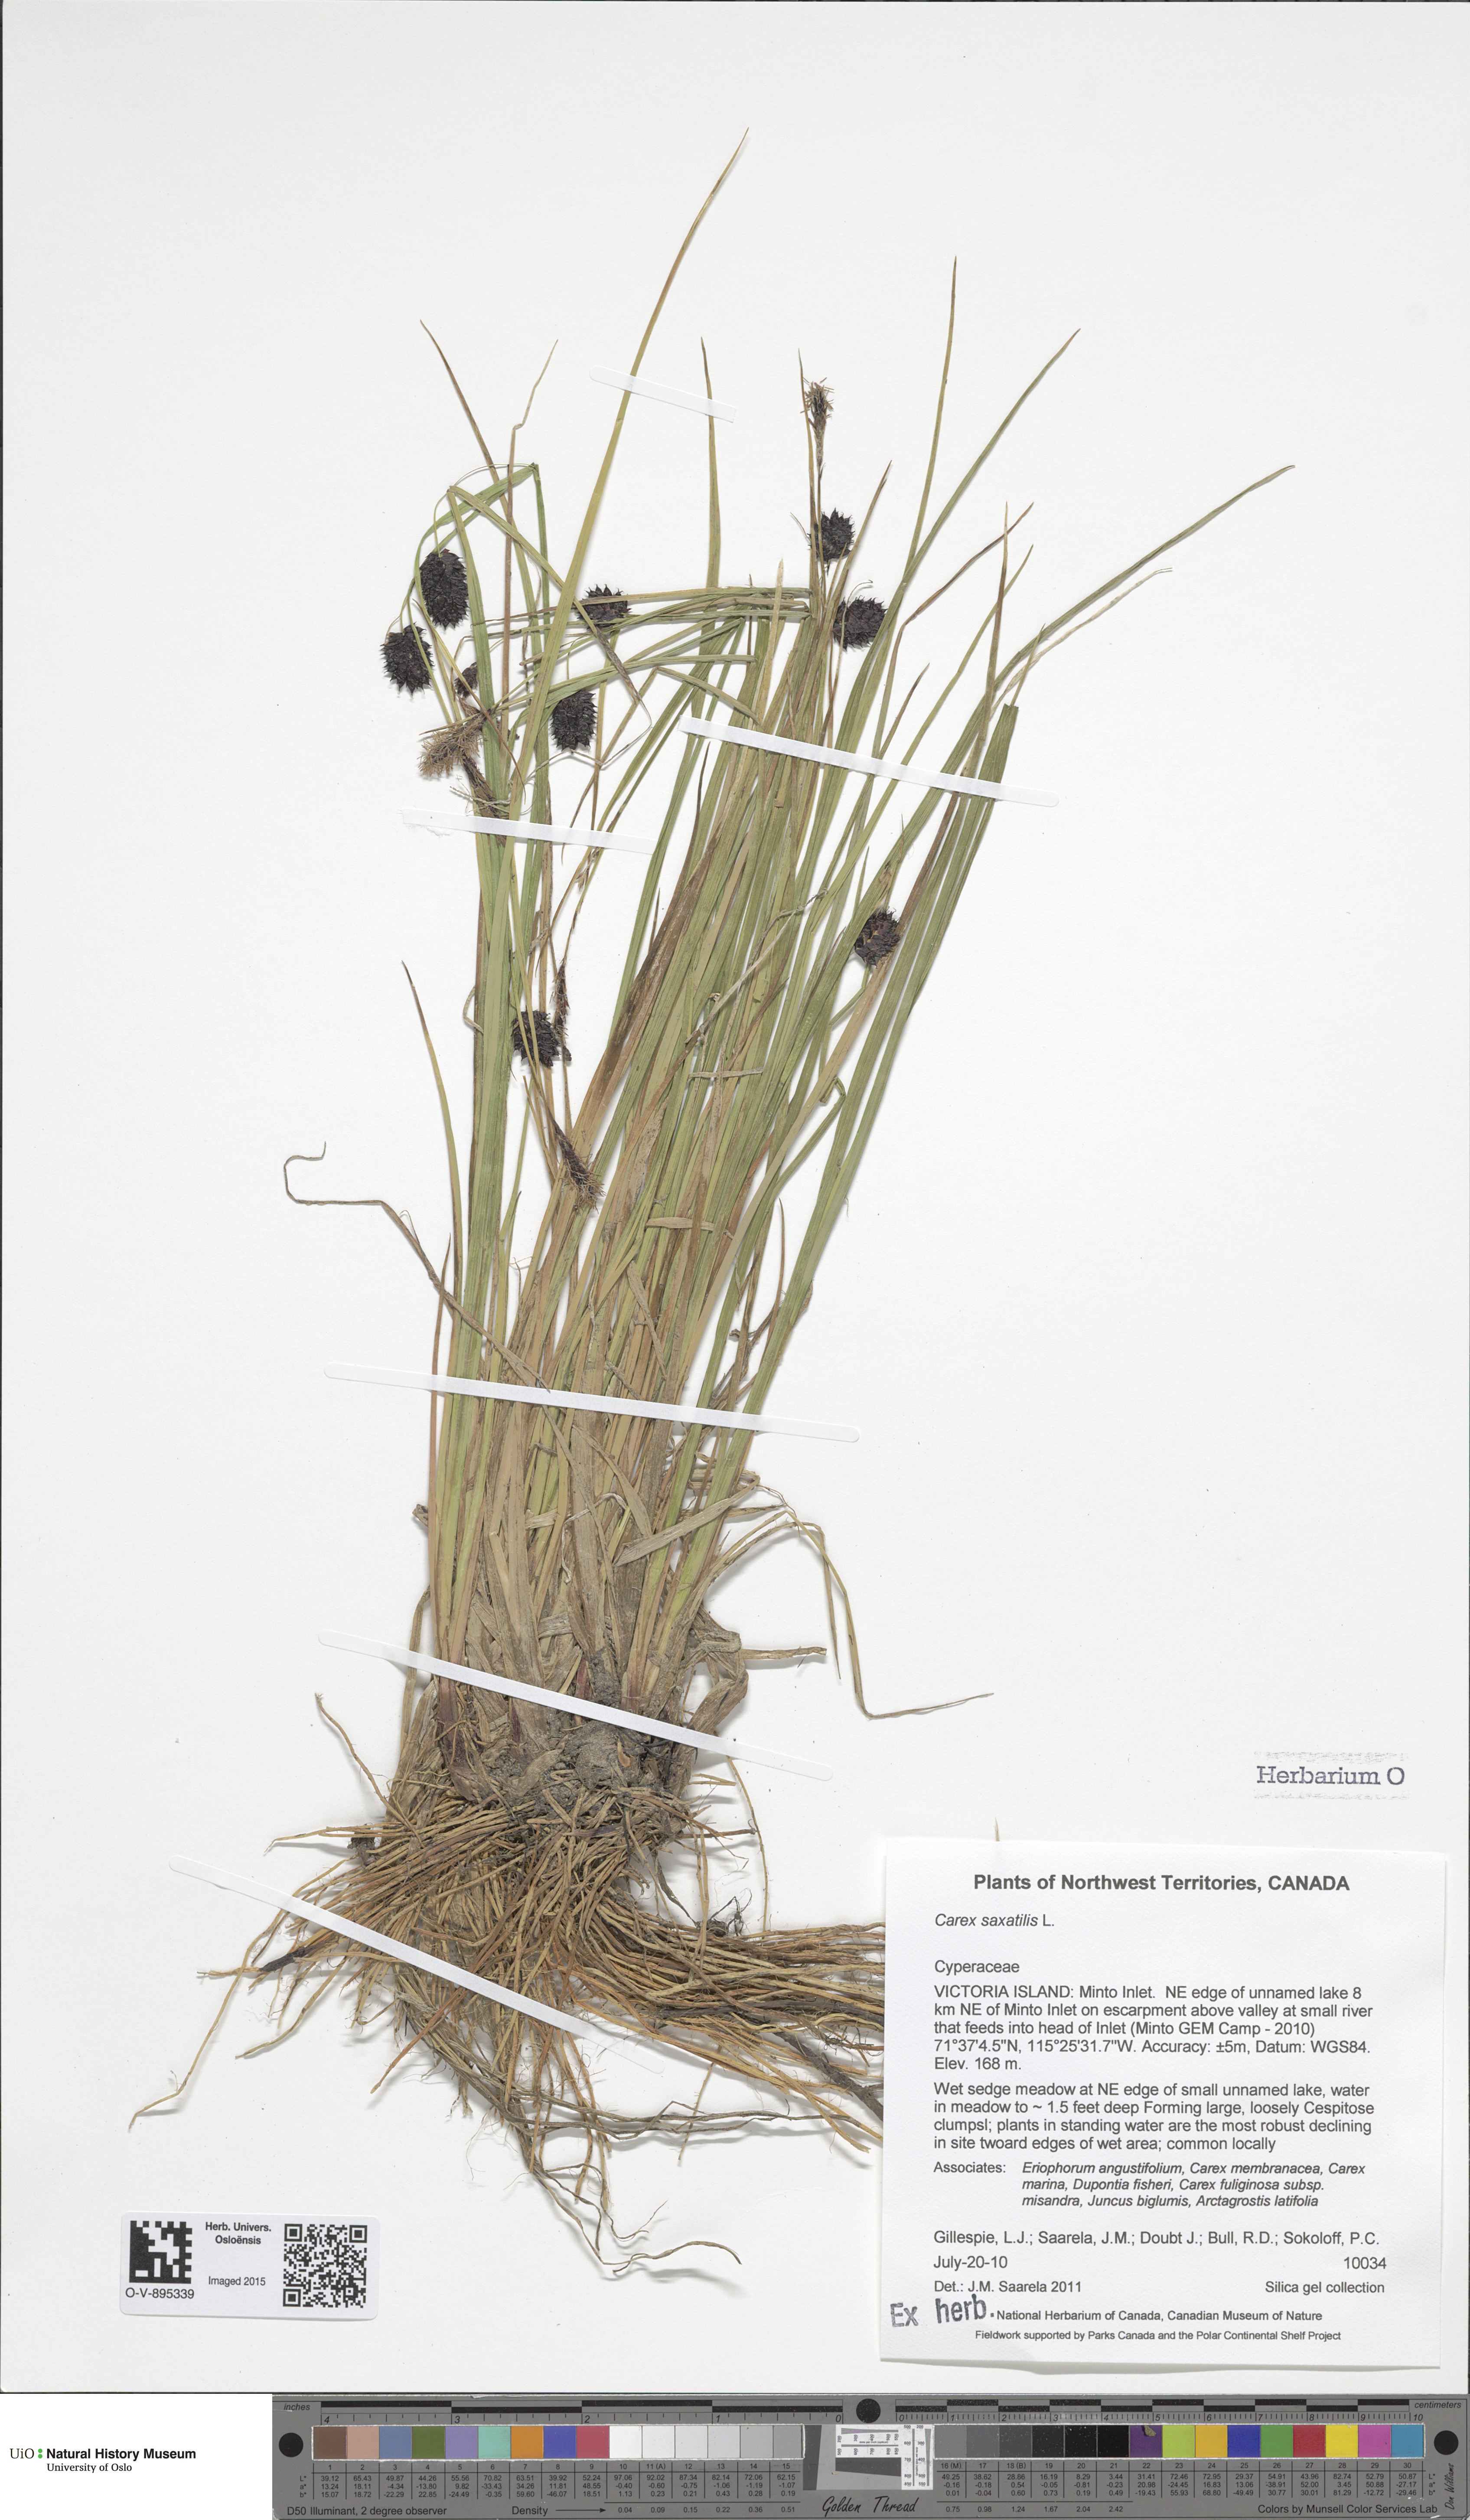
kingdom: Plantae
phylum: Tracheophyta
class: Liliopsida
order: Poales
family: Cyperaceae
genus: Carex
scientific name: Carex saxatilis
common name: Russet sedge
